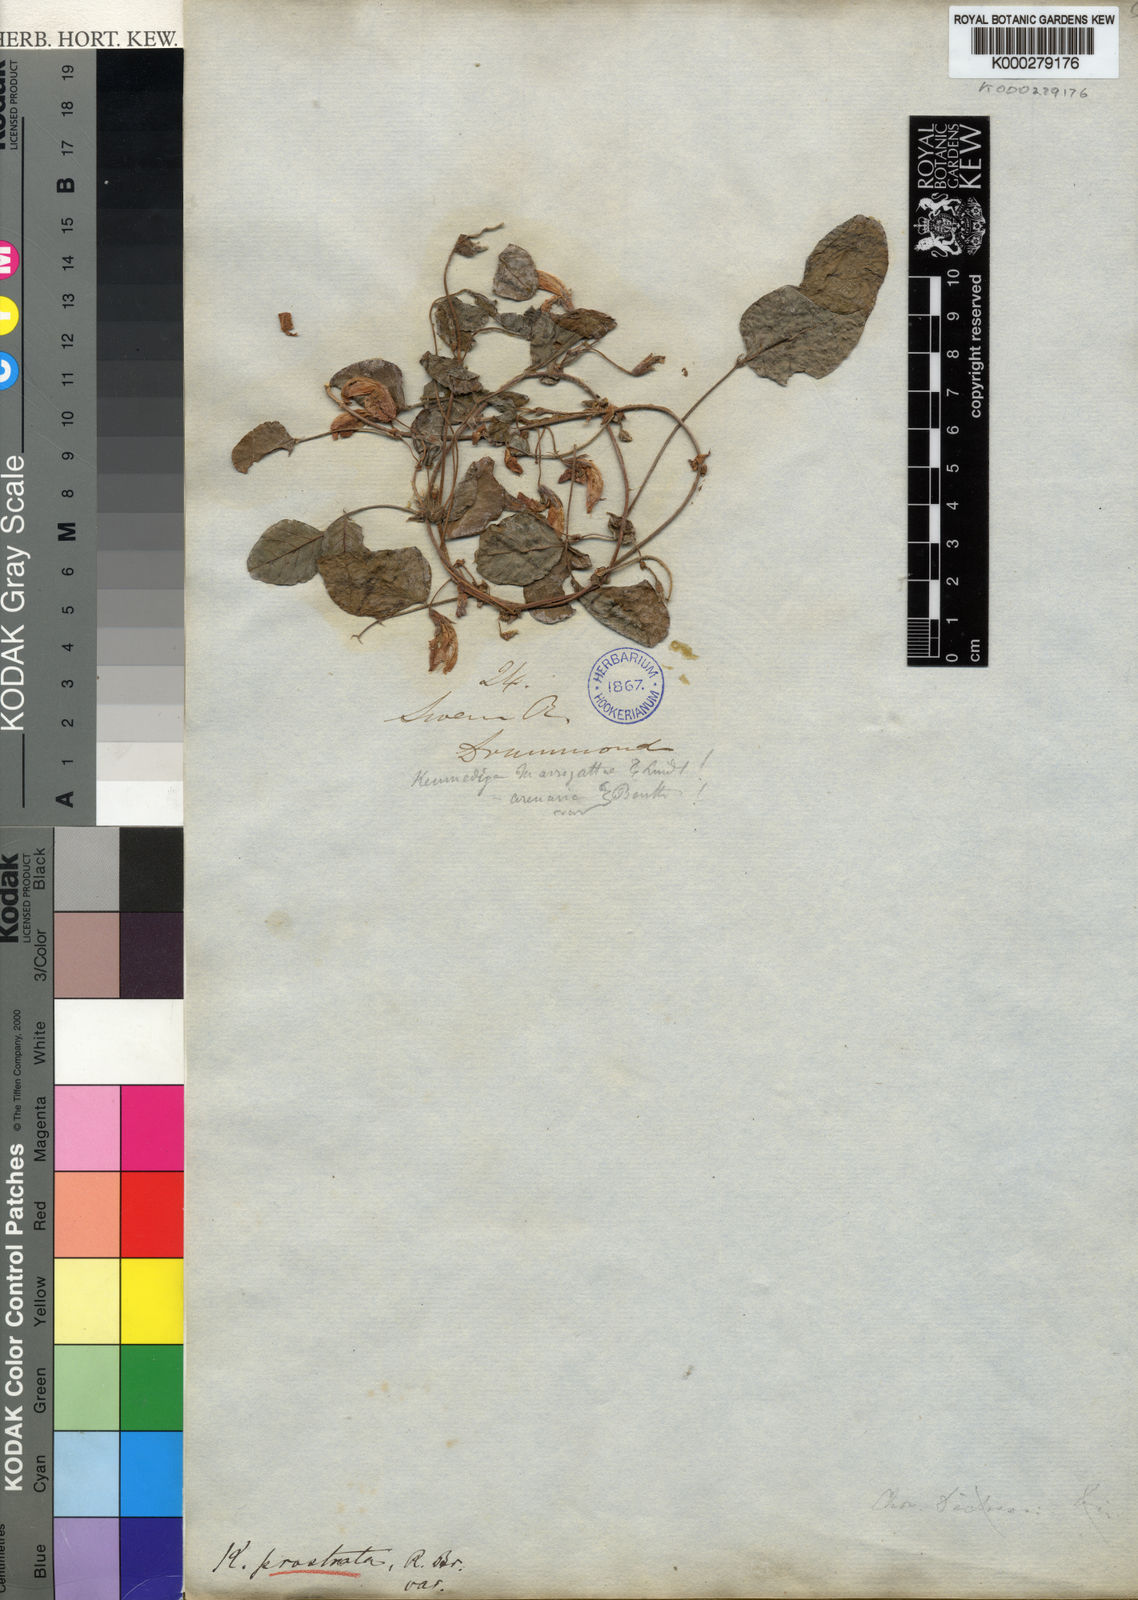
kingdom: Plantae
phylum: Tracheophyta
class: Magnoliopsida
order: Fabales
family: Fabaceae
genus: Kennedia
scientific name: Kennedia prostrata
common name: Running-postman
